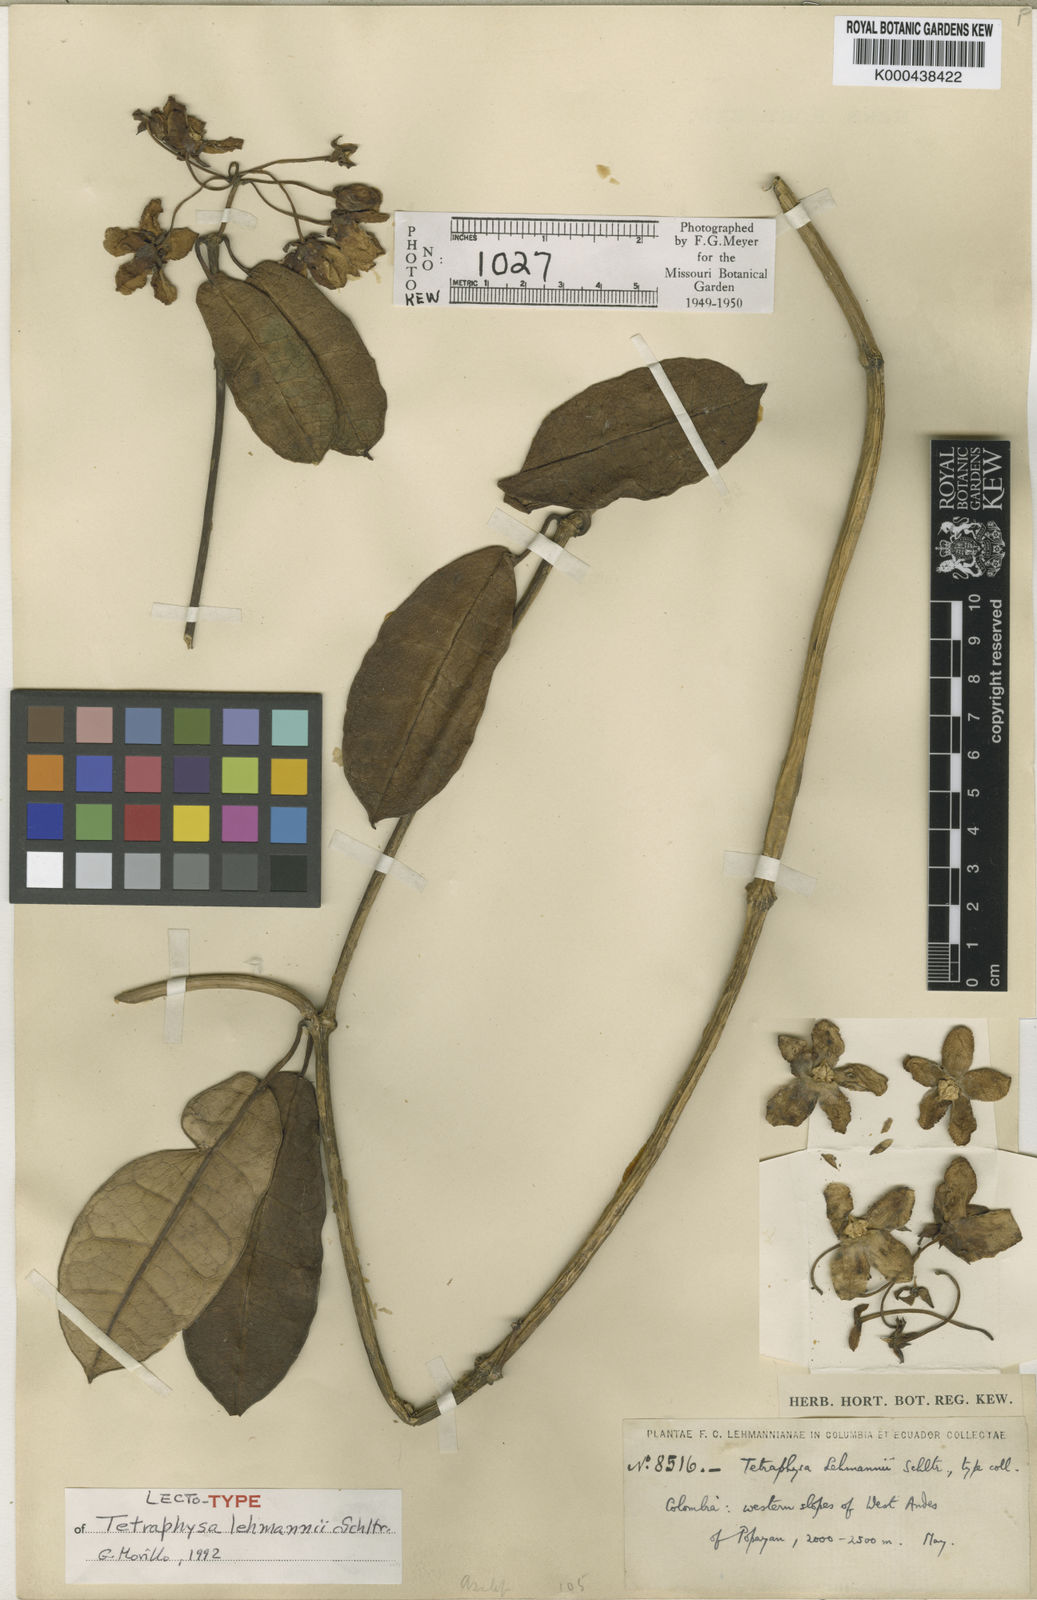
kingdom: Plantae
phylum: Tracheophyta
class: Magnoliopsida
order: Gentianales
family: Apocynaceae
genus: Pentacyphus
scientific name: Pentacyphus lehmannii
